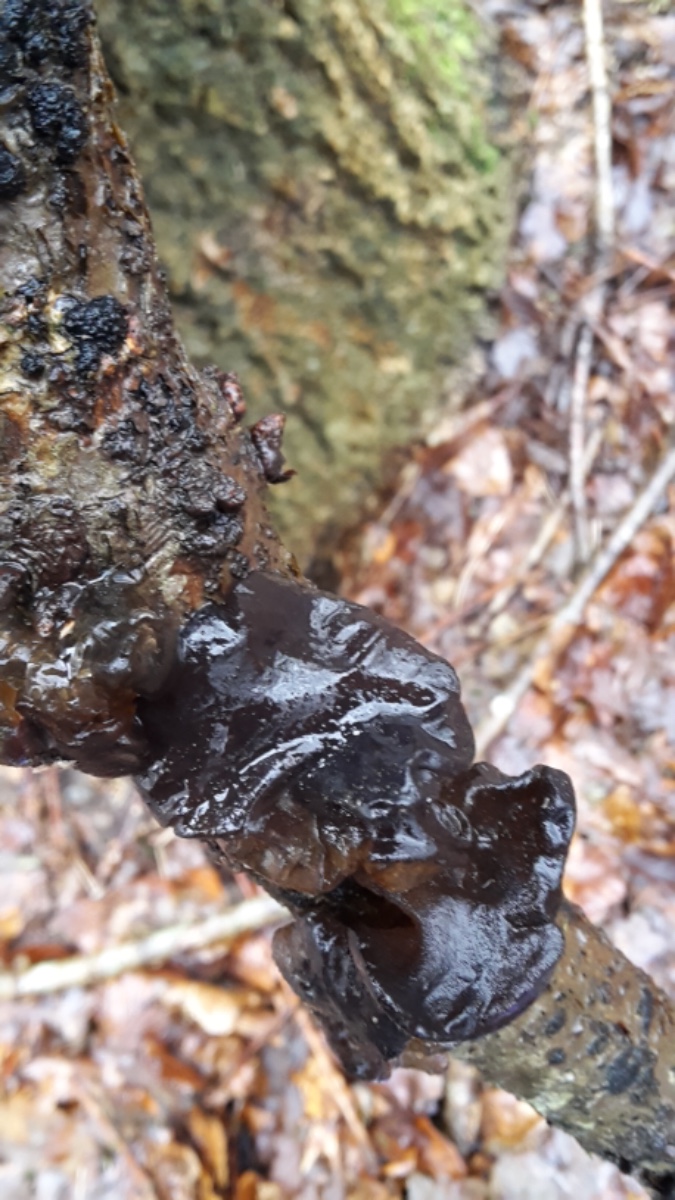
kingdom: Fungi
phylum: Basidiomycota
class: Agaricomycetes
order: Auriculariales
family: Auriculariaceae
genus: Exidia
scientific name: Exidia glandulosa
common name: ege-bævretop
